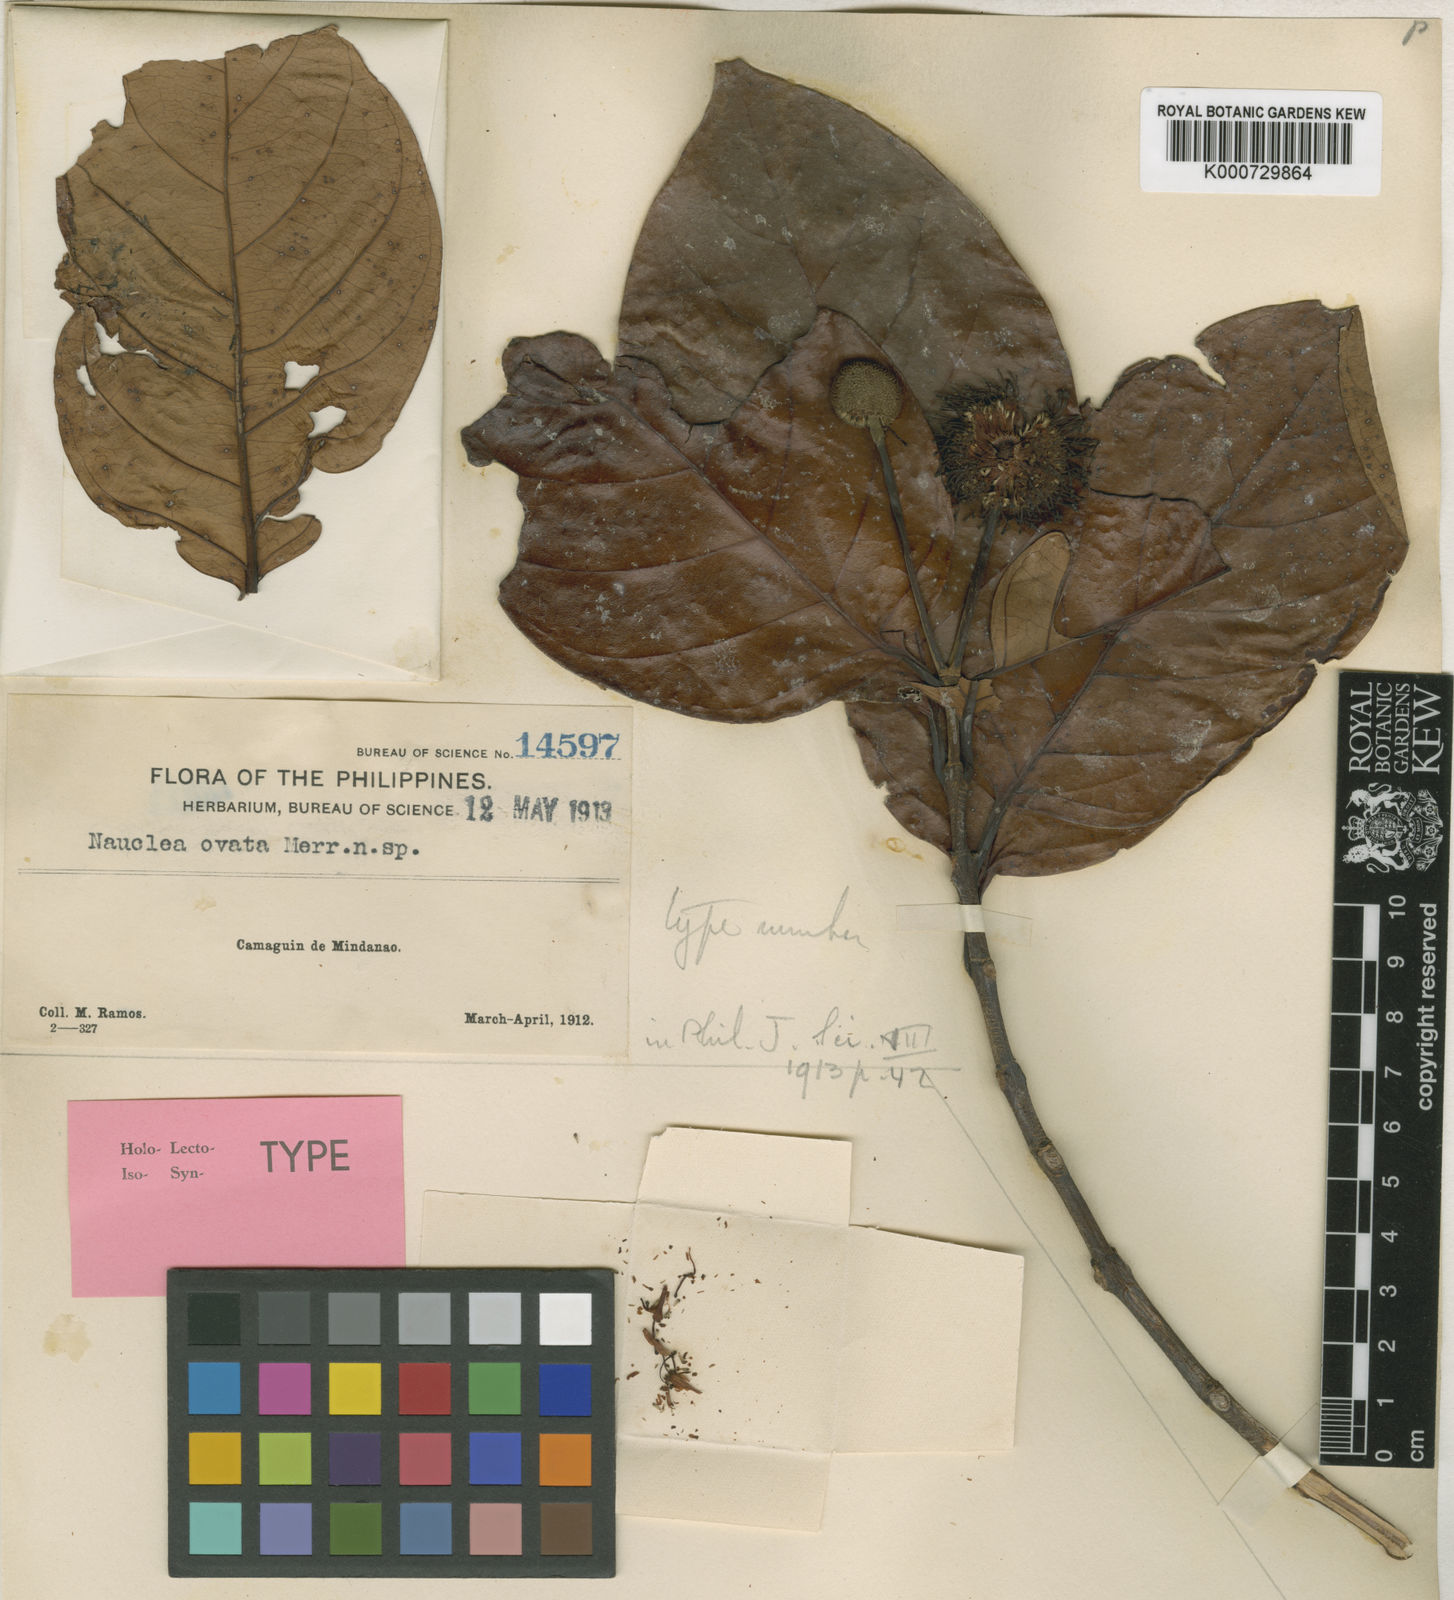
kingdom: Plantae
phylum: Tracheophyta
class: Magnoliopsida
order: Gentianales
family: Rubiaceae
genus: Neonauclea
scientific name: Neonauclea glabra
